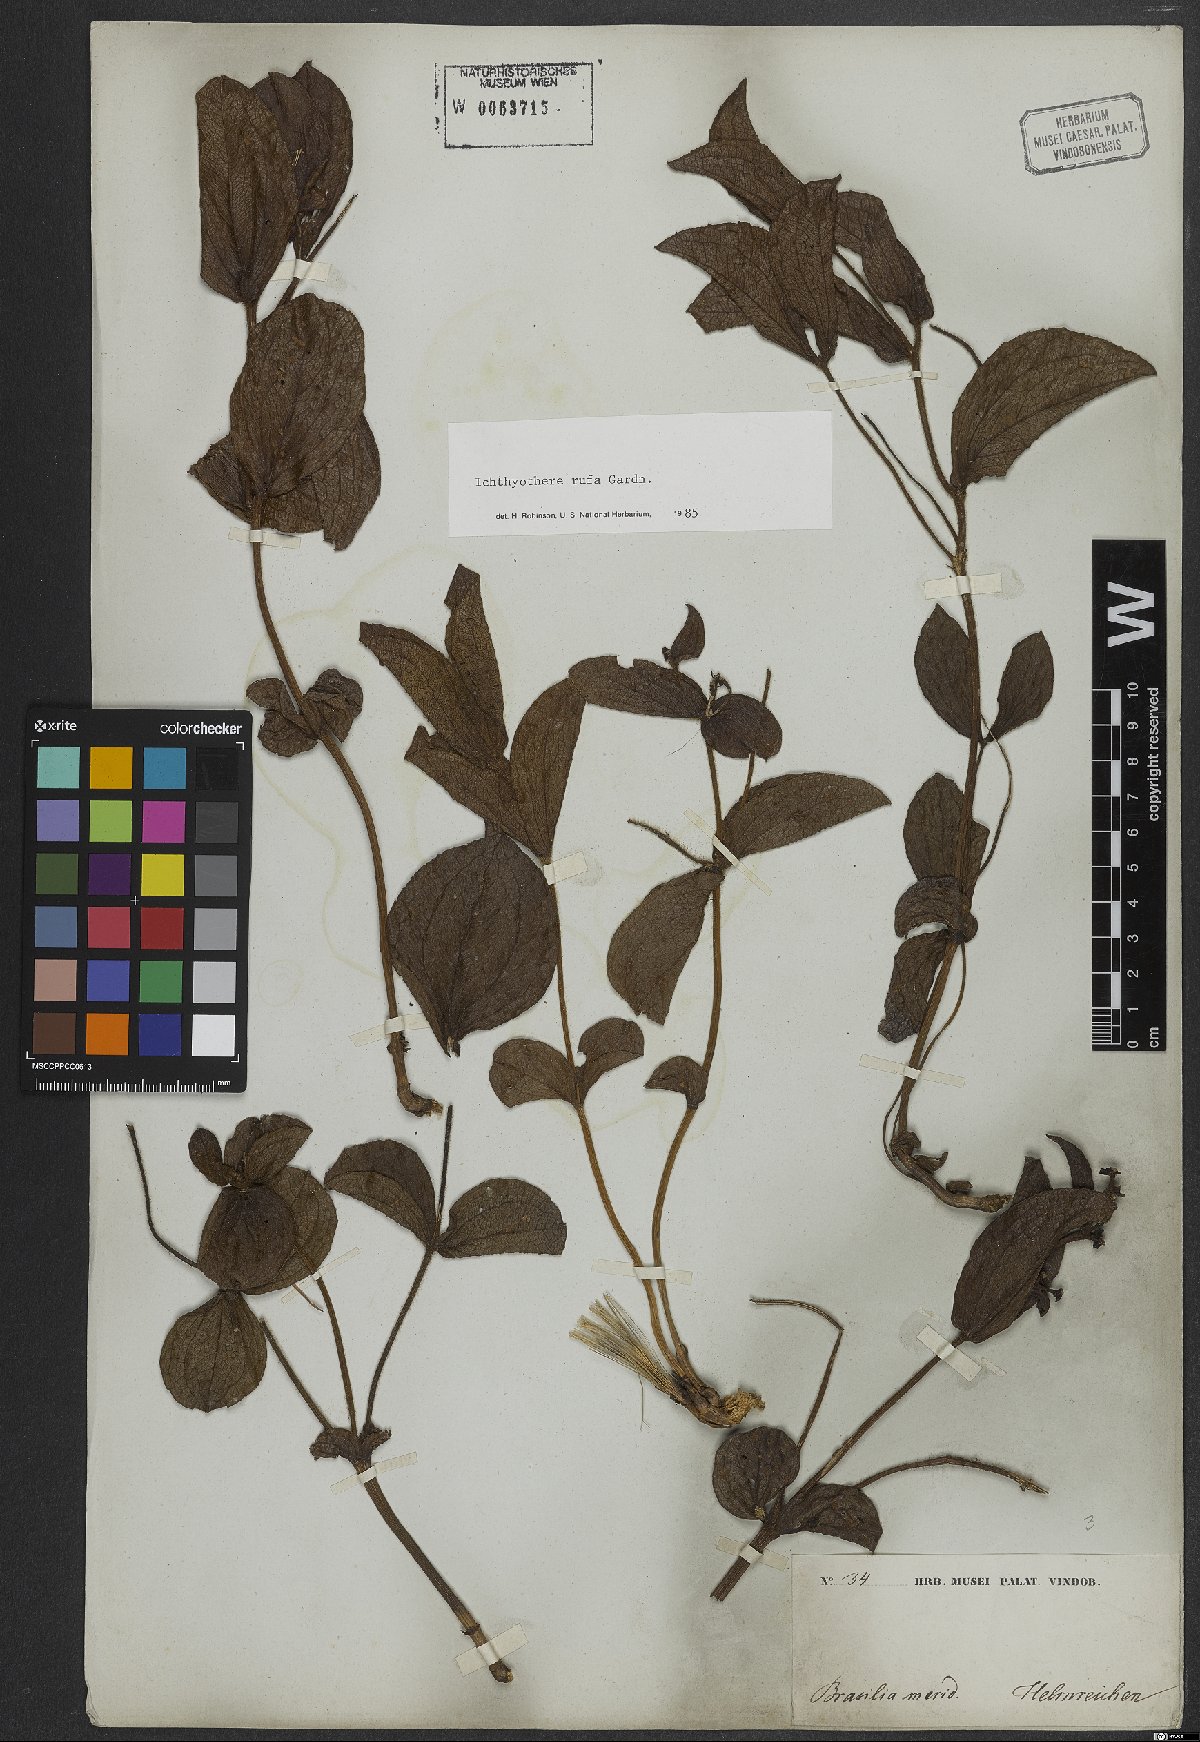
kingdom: Plantae
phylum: Tracheophyta
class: Magnoliopsida
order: Asterales
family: Asteraceae
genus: Ichthyothere
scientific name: Ichthyothere rufa
